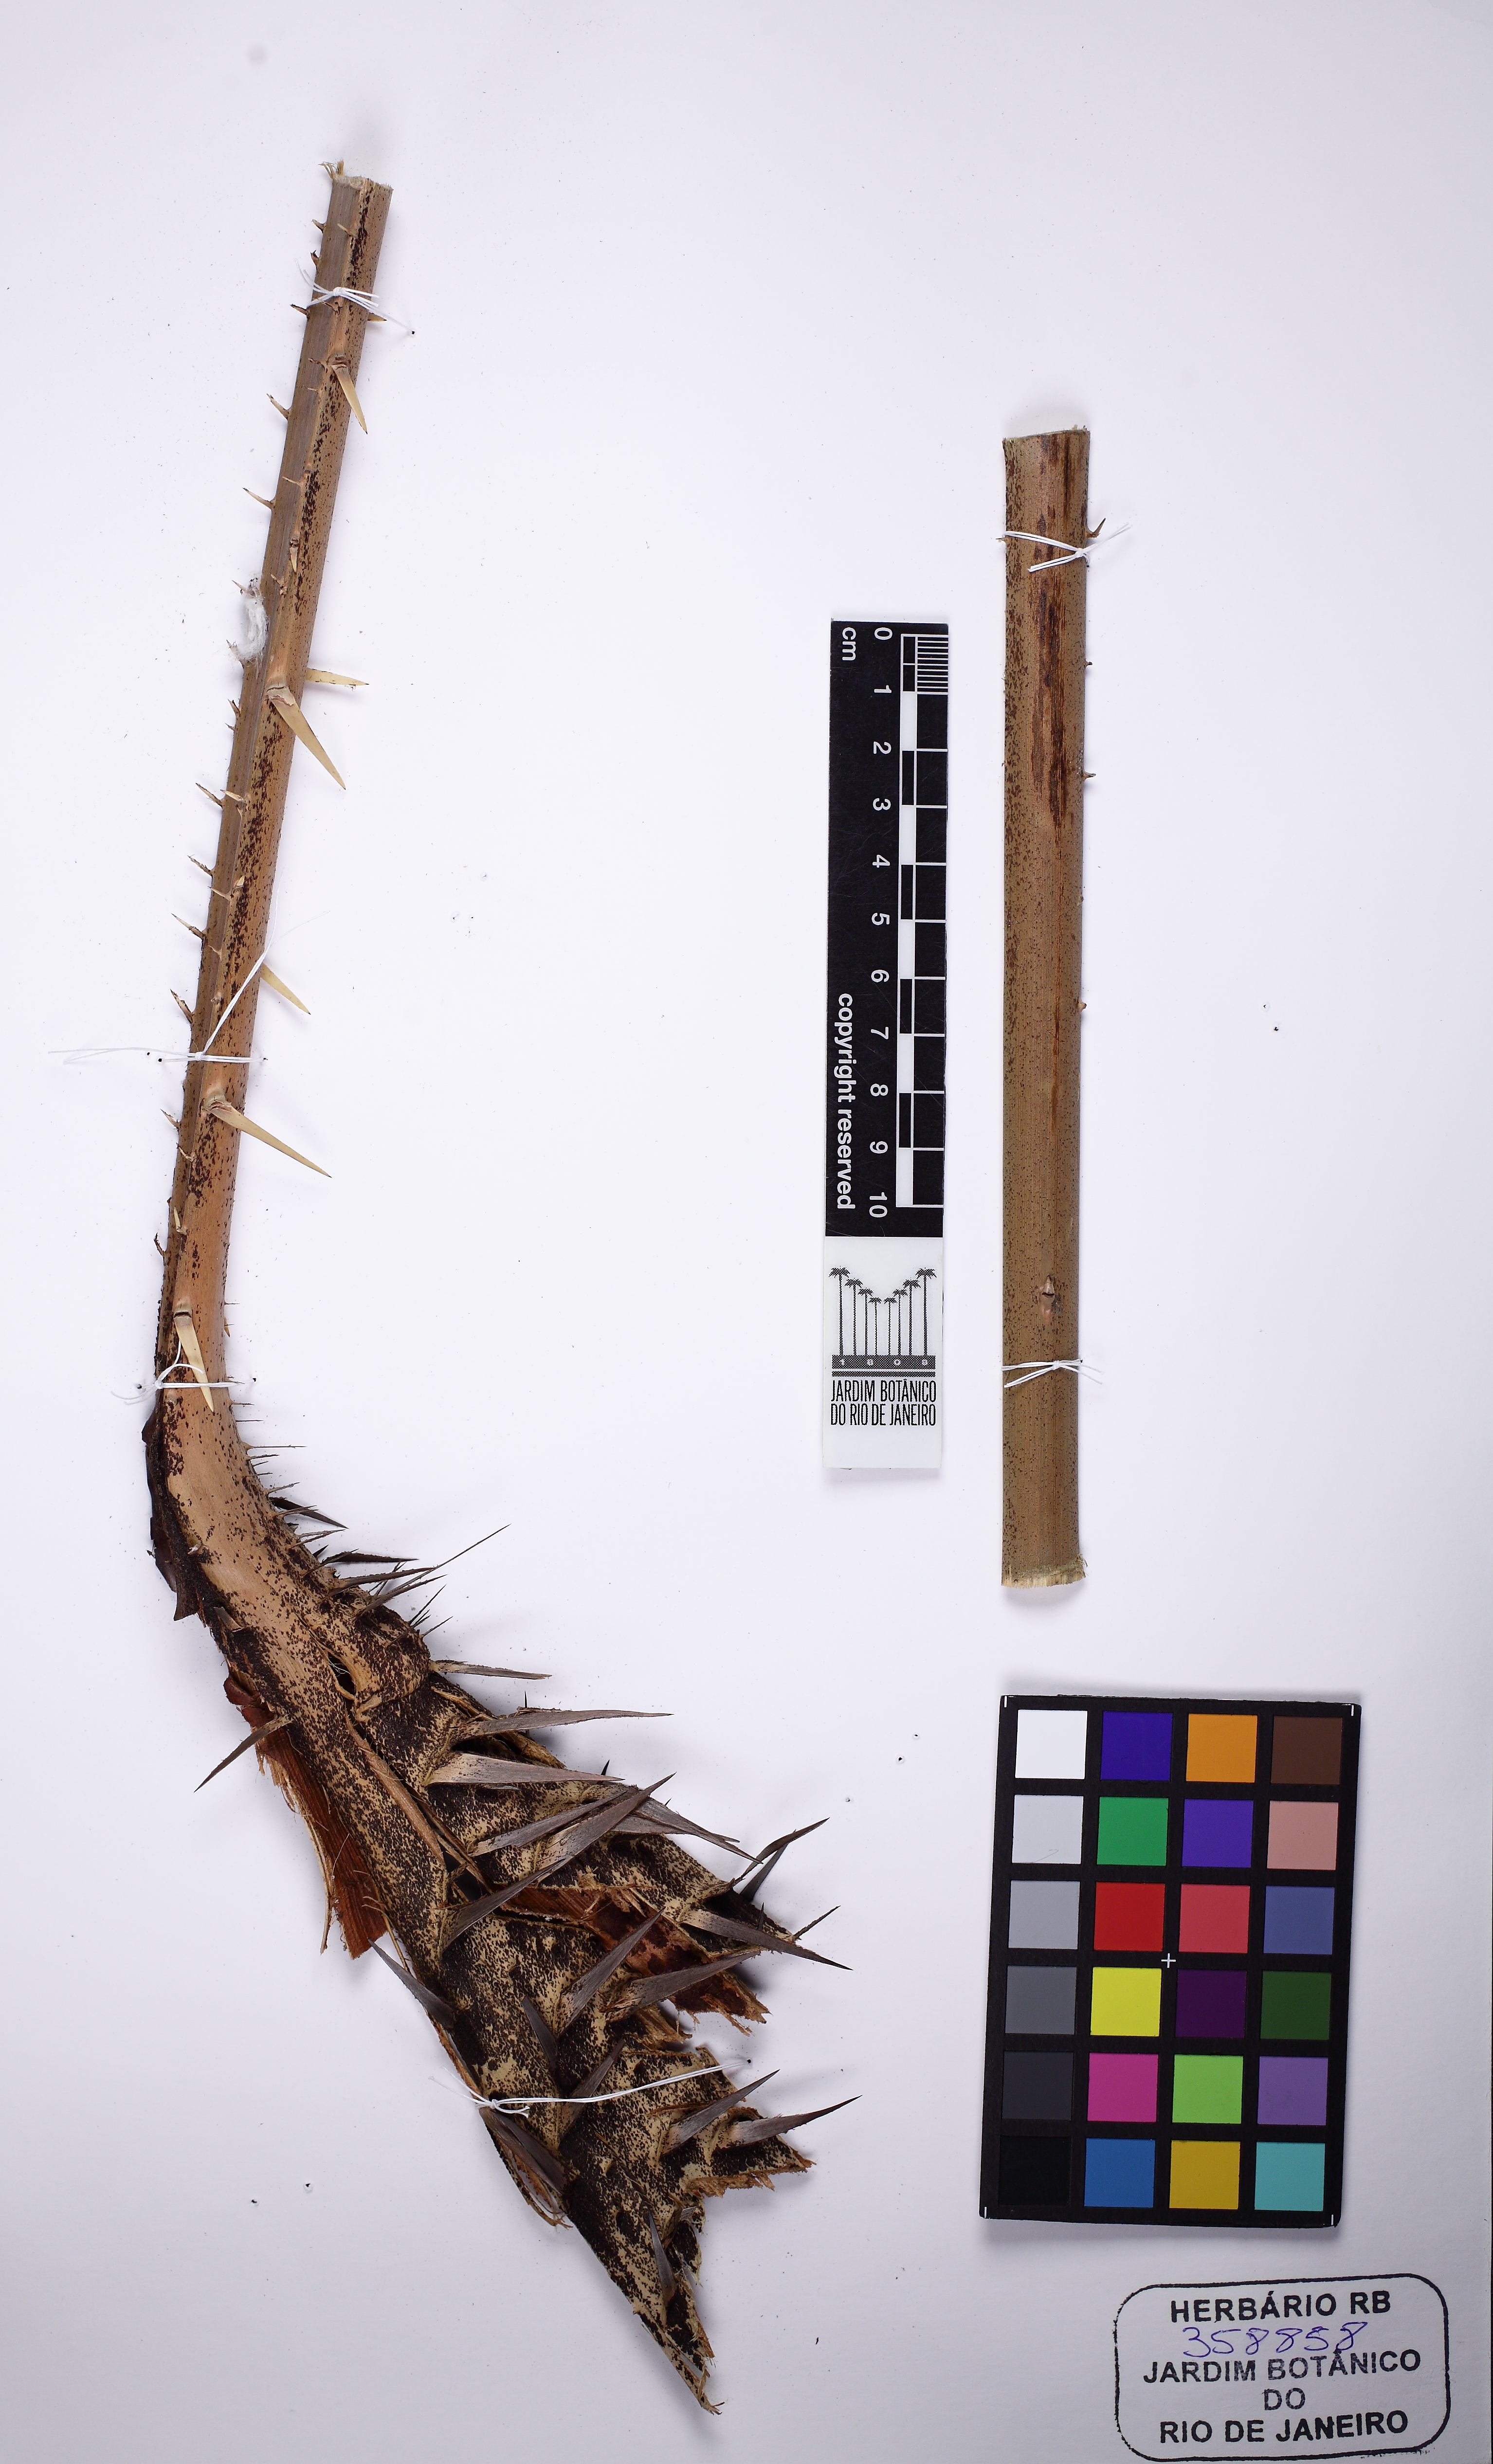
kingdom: Plantae
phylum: Tracheophyta
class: Liliopsida
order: Arecales
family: Arecaceae
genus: Calamus
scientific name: Calamus
